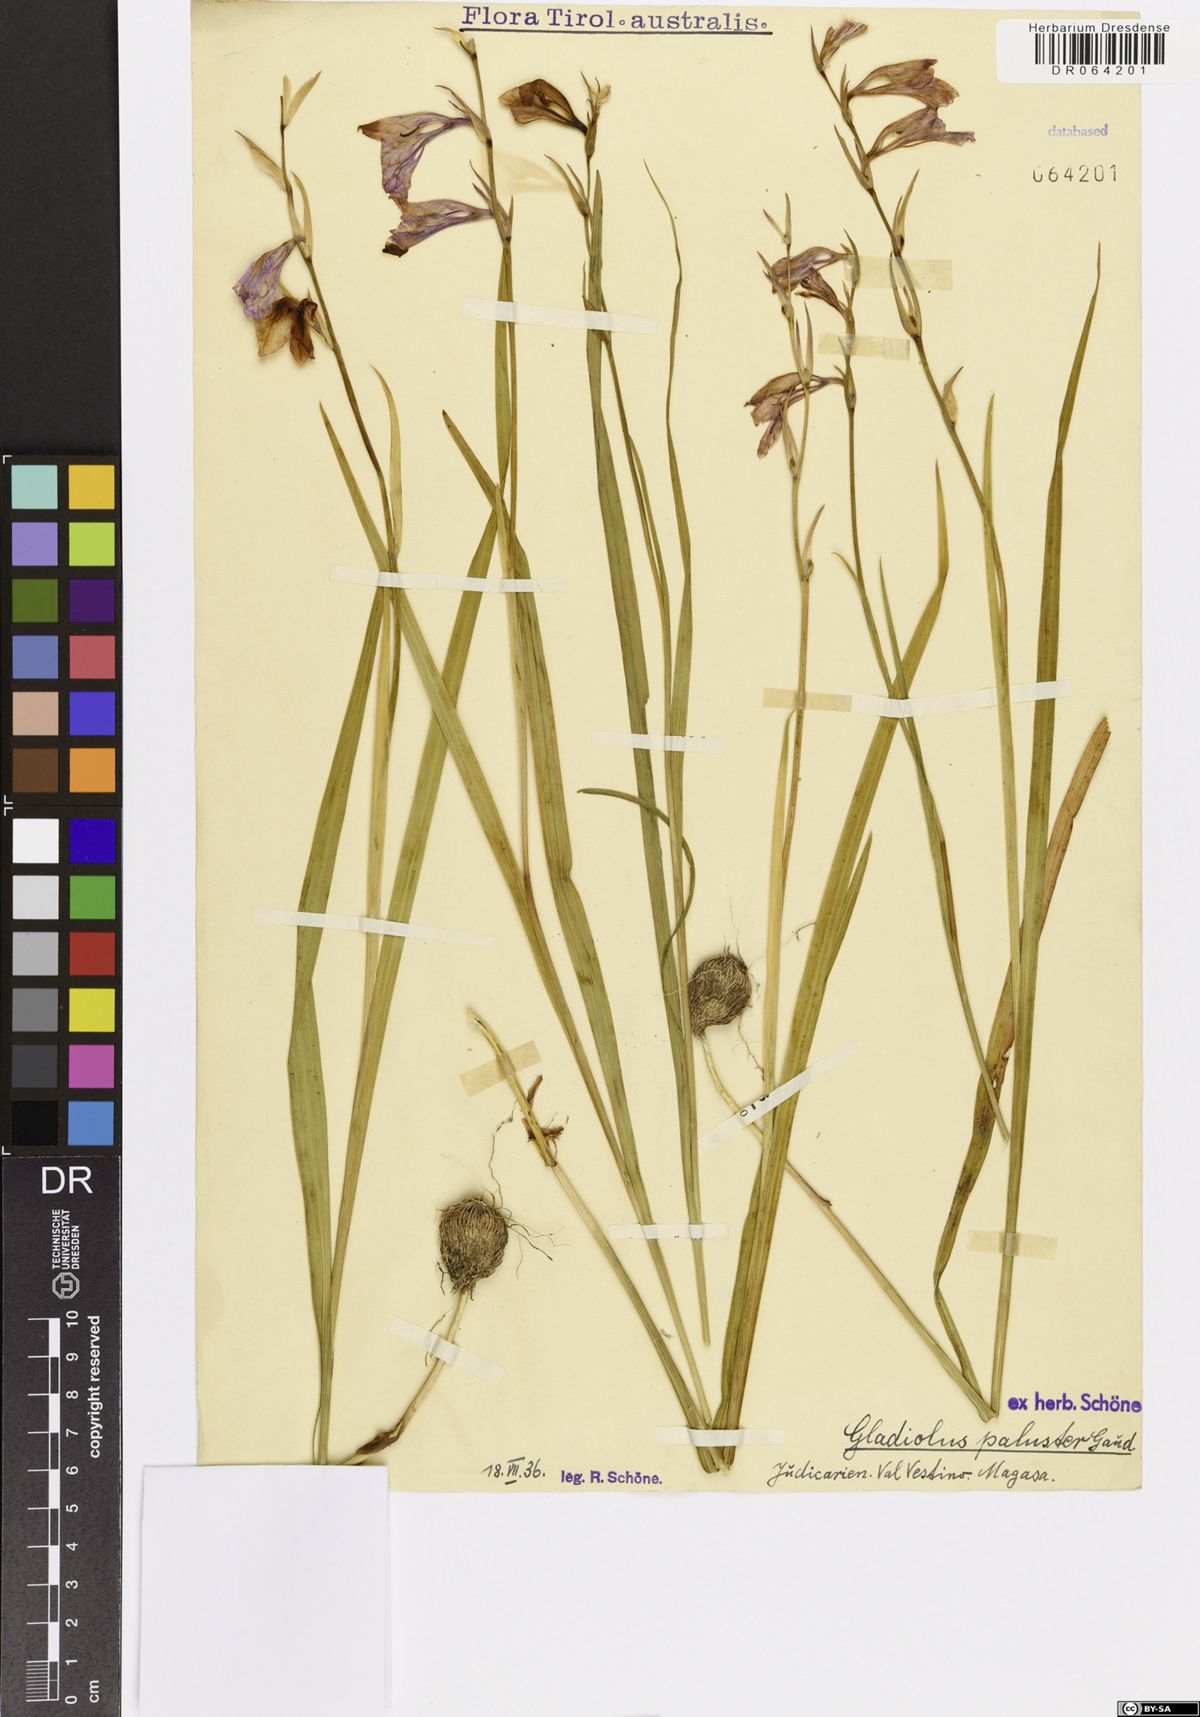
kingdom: Plantae
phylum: Tracheophyta
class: Liliopsida
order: Asparagales
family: Iridaceae
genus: Gladiolus
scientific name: Gladiolus palustris
